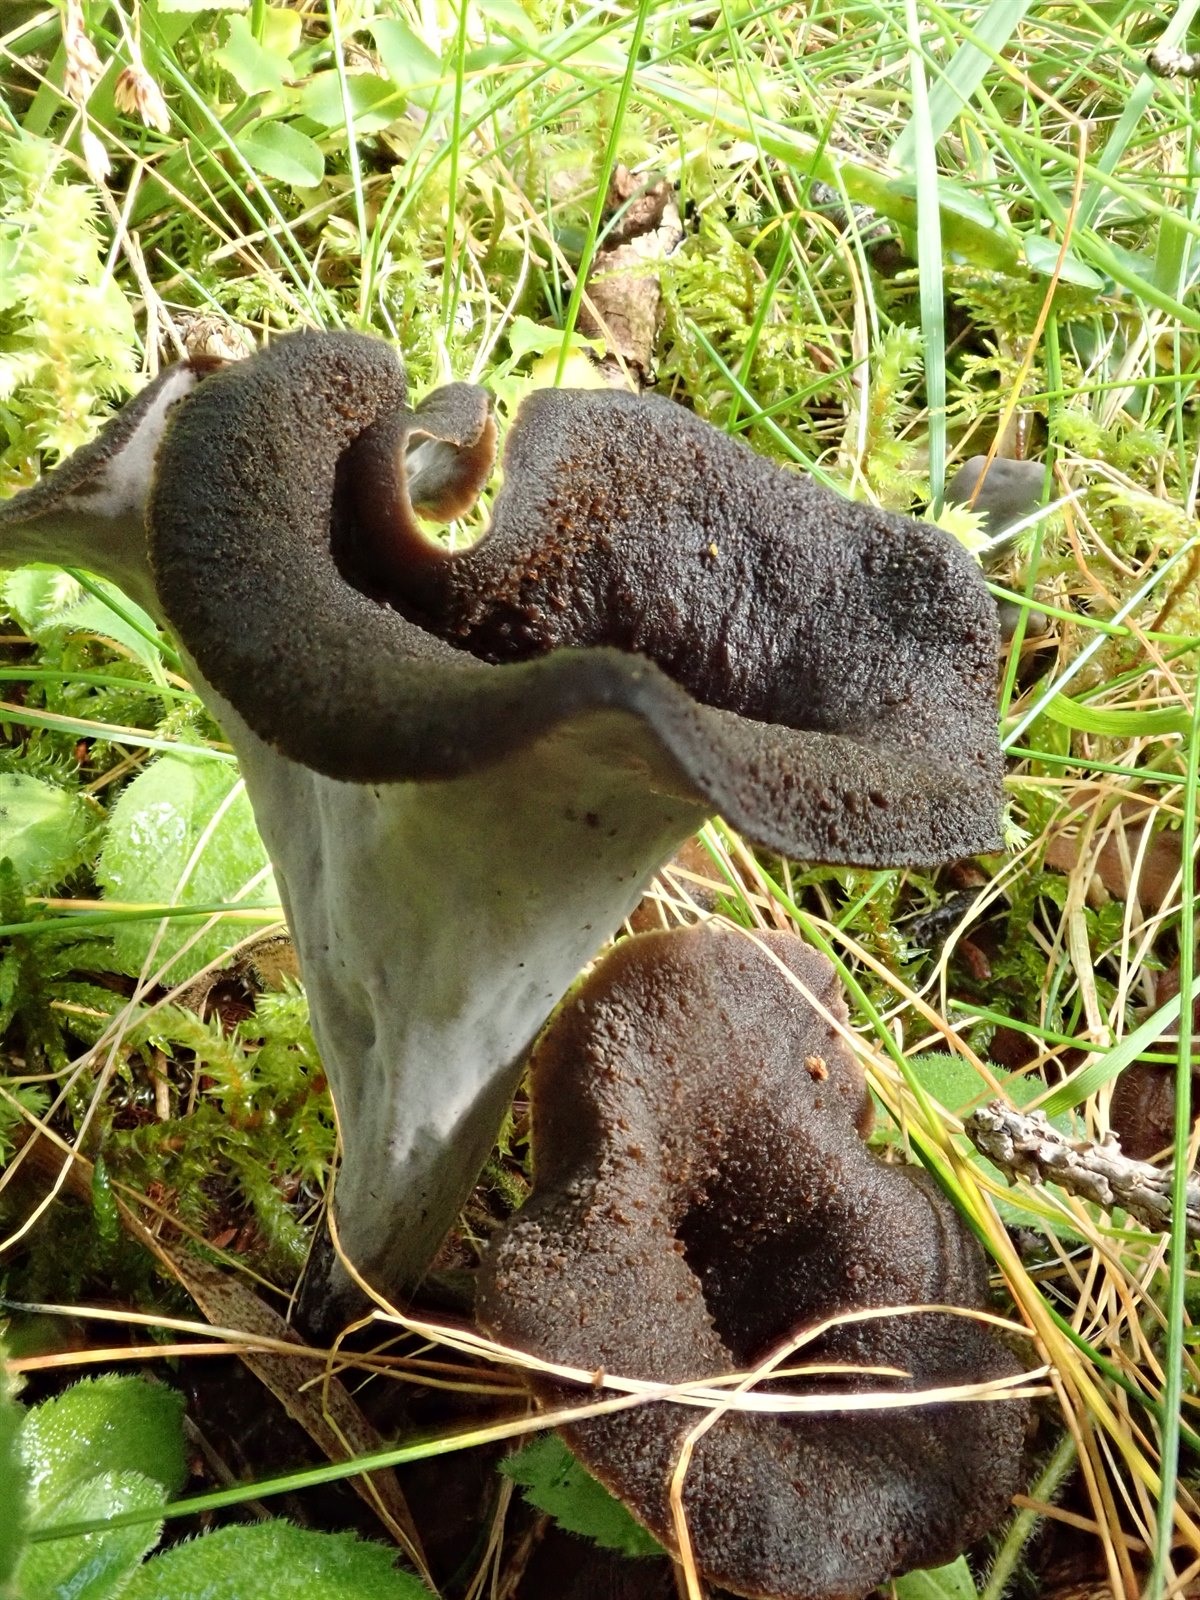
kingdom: Fungi
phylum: Basidiomycota
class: Agaricomycetes
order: Cantharellales
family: Hydnaceae
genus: Craterellus
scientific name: Craterellus cornucopioides
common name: Horn of plenty
